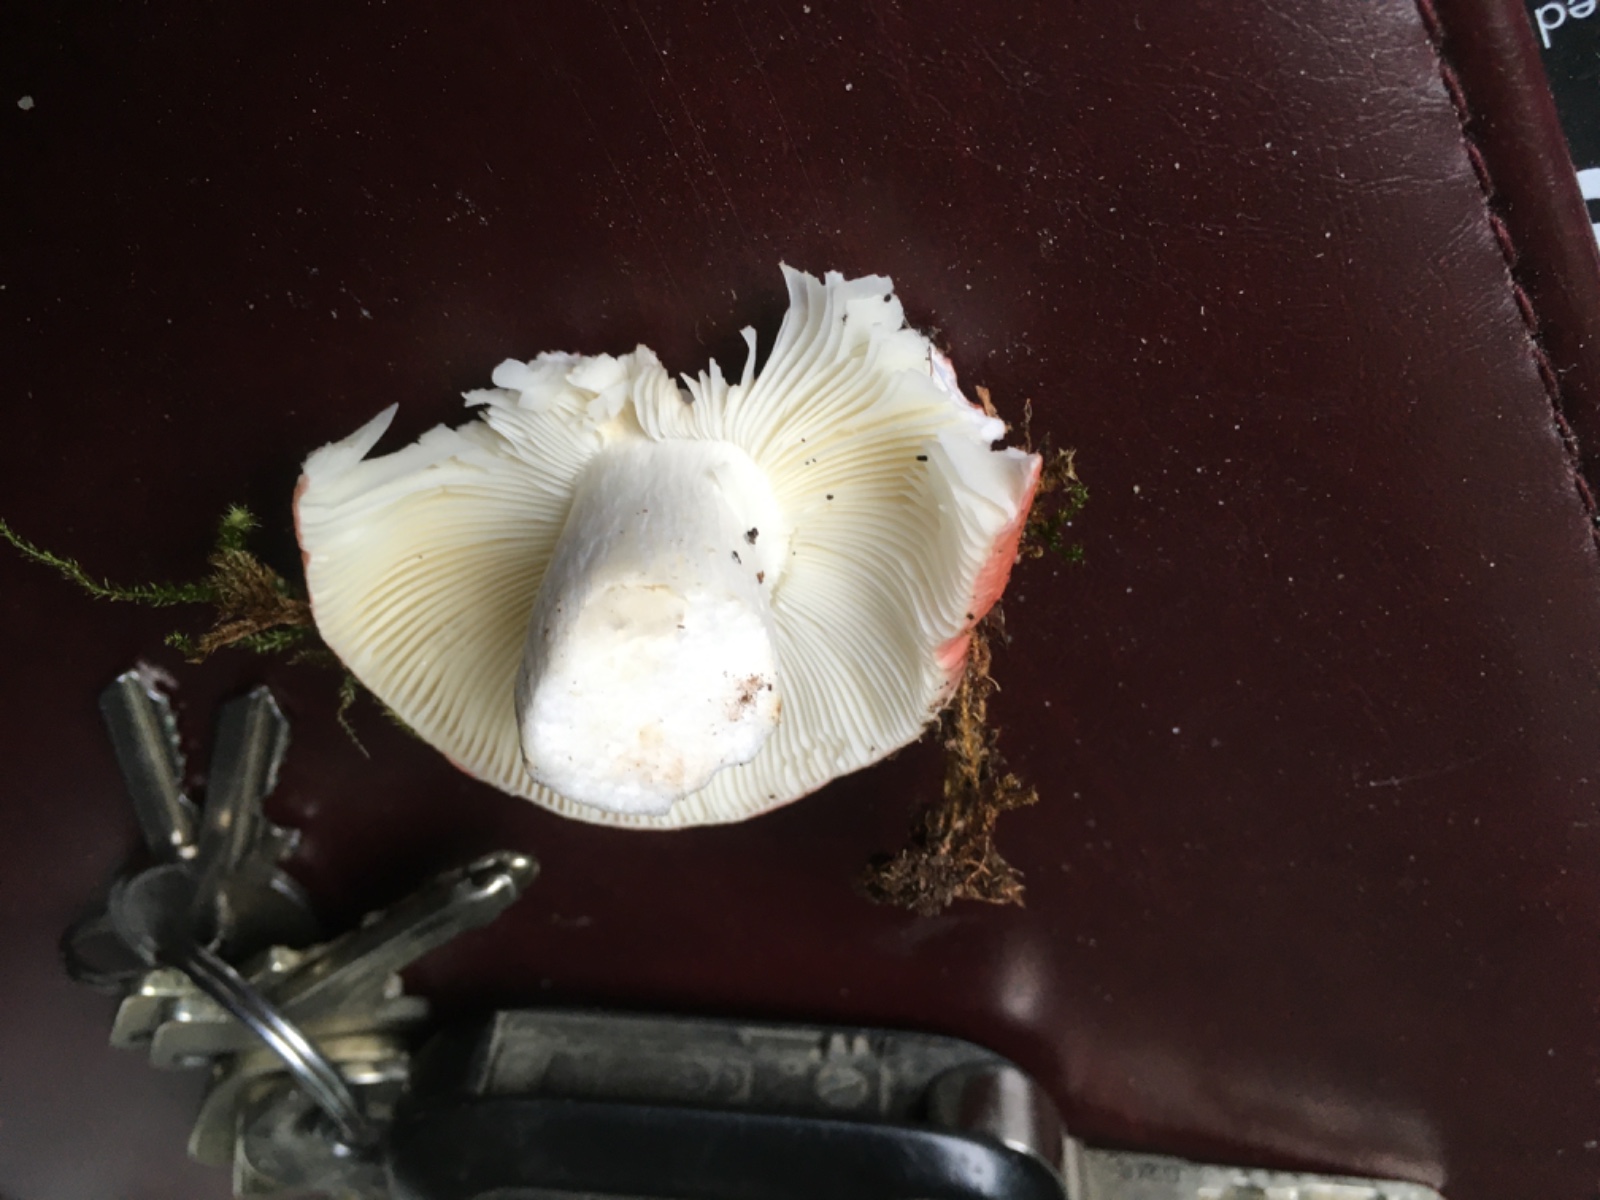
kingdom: Fungi
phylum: Basidiomycota
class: Agaricomycetes
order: Russulales
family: Russulaceae
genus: Russula
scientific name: Russula silvestris
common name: mellemstor gift-skørhat
